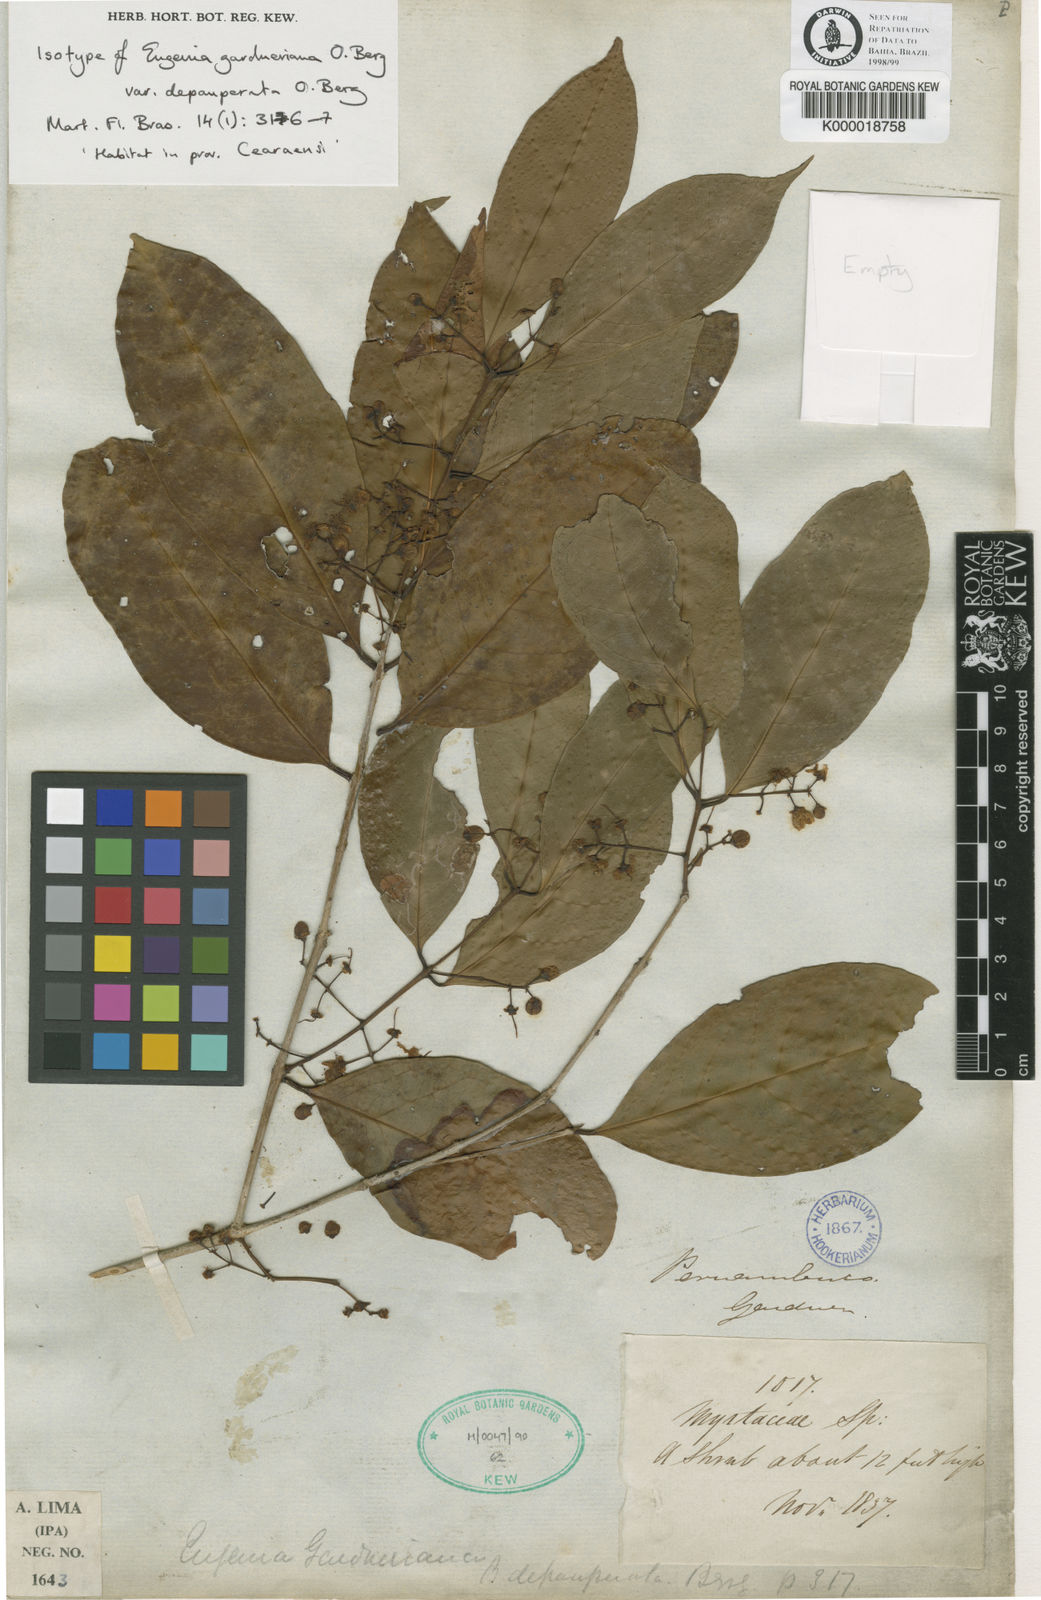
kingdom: Plantae
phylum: Tracheophyta
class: Magnoliopsida
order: Myrtales
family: Myrtaceae
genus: Eugenia
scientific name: Eugenia florida
